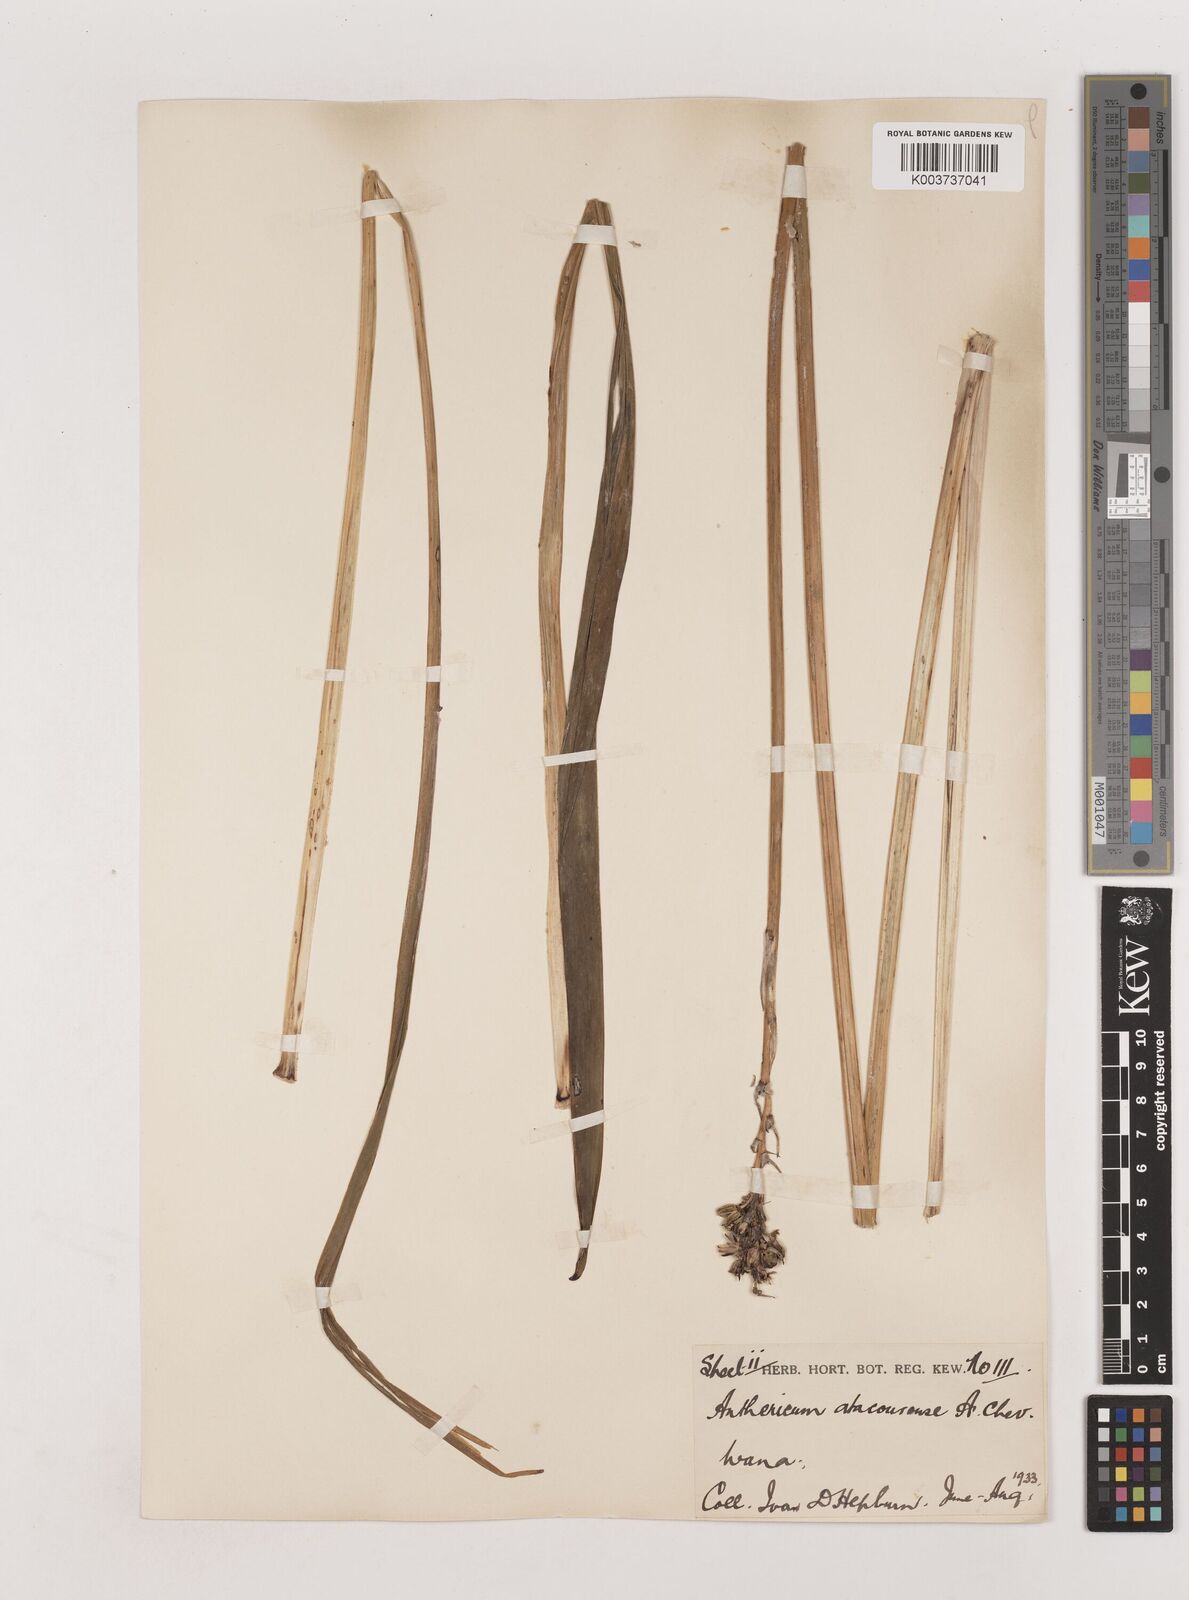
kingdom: Plantae
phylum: Tracheophyta
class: Liliopsida
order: Asparagales
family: Asparagaceae
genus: Chlorophytum
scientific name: Chlorophytum cameronii
